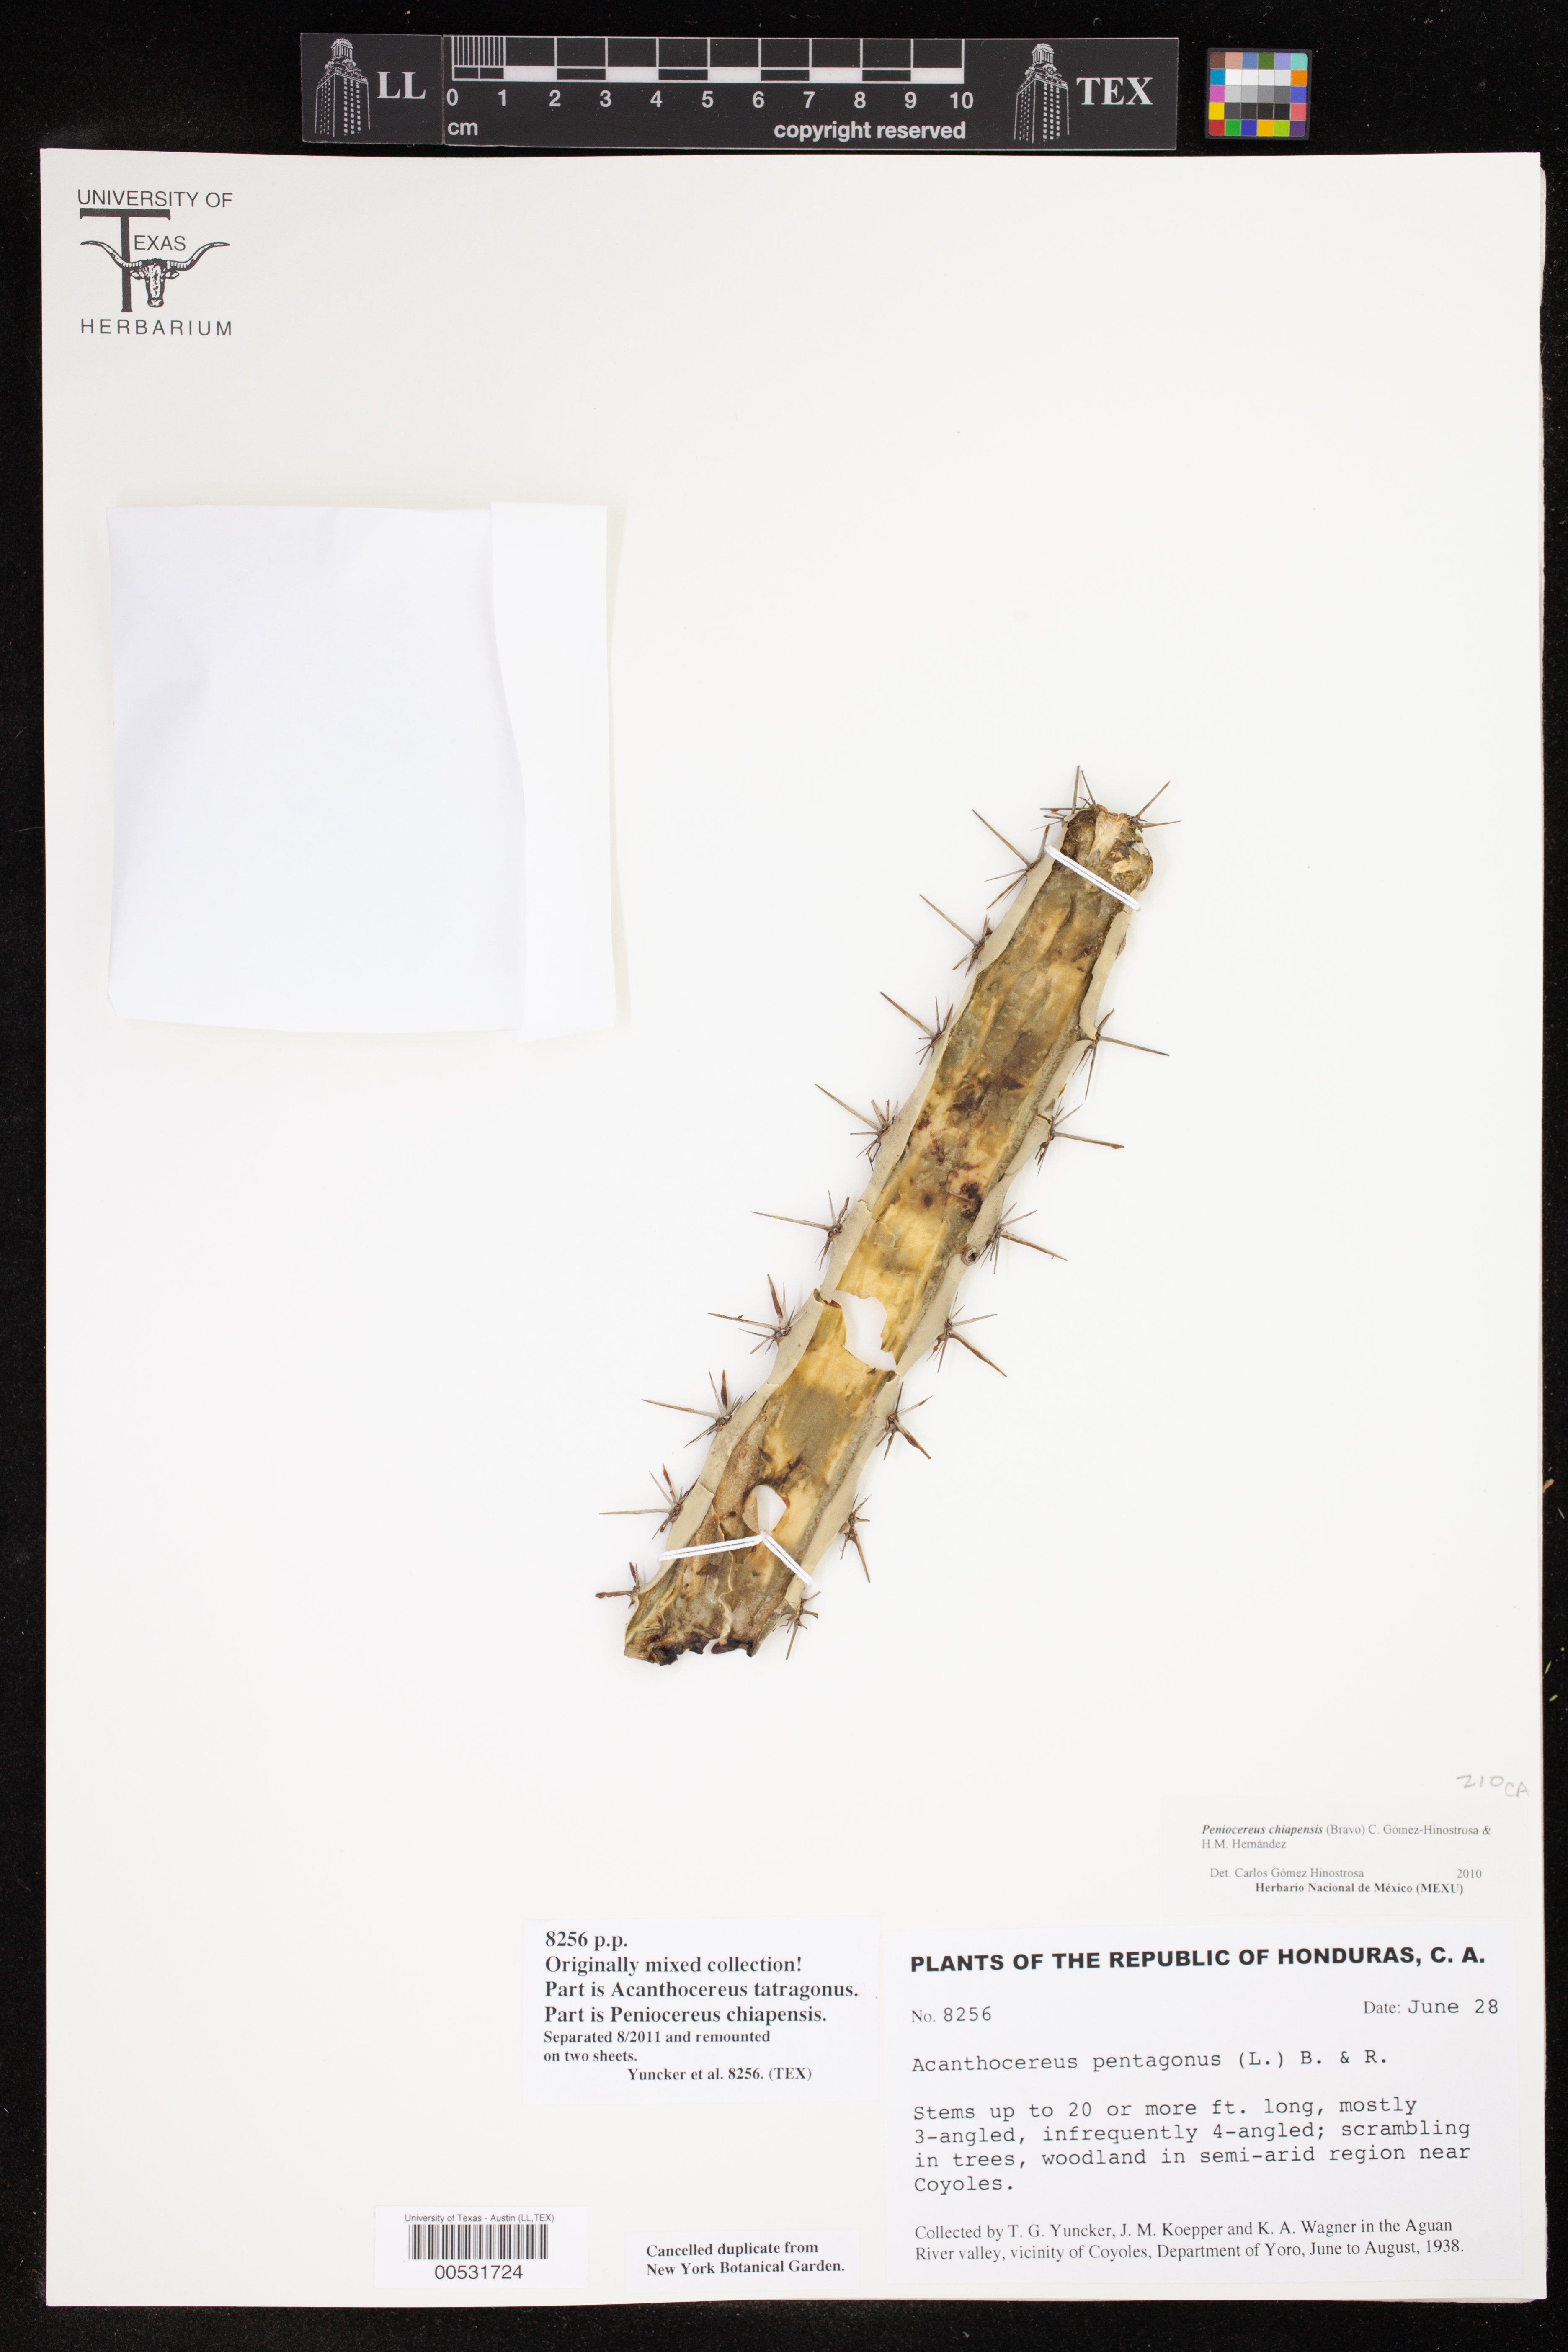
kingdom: Plantae
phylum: Tracheophyta
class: Magnoliopsida
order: Caryophyllales
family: Cactaceae
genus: Acanthocereus
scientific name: Acanthocereus chiapensis
